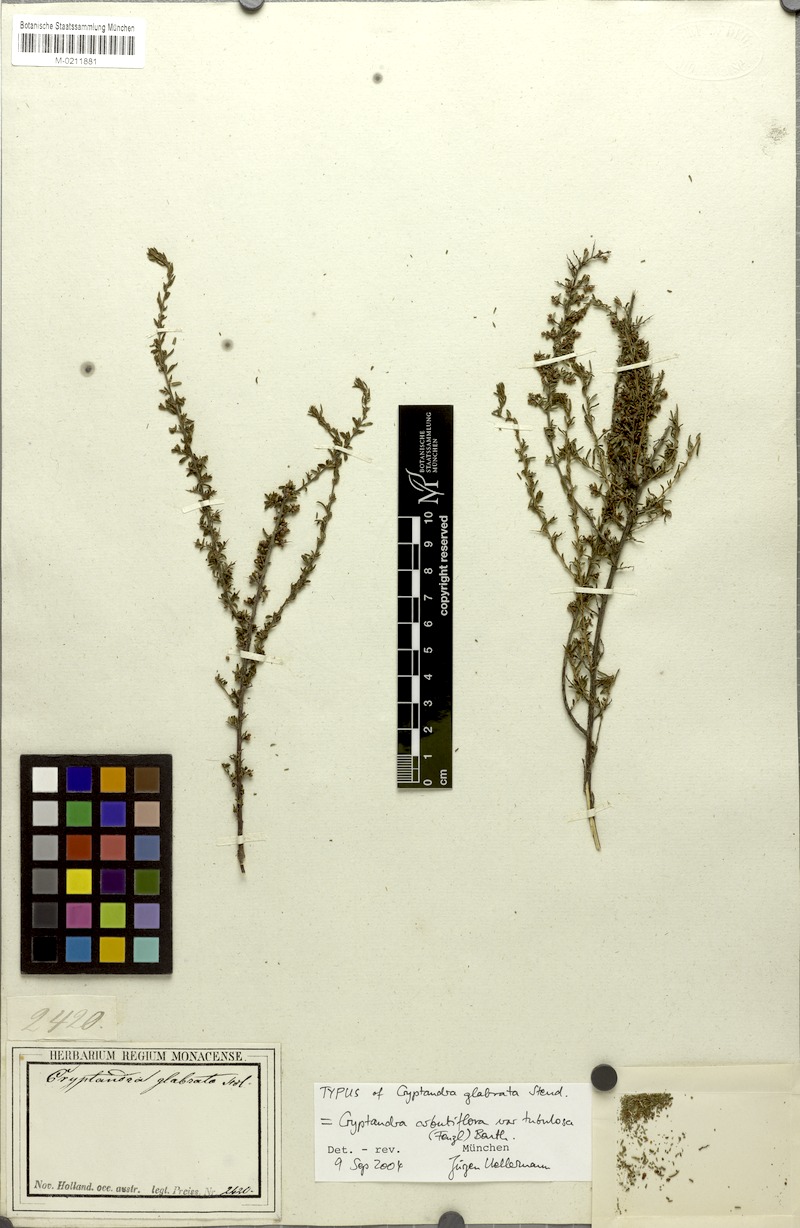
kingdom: Plantae
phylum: Tracheophyta
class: Magnoliopsida
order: Rosales
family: Rhamnaceae
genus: Cryptandra
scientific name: Cryptandra tubulosa
